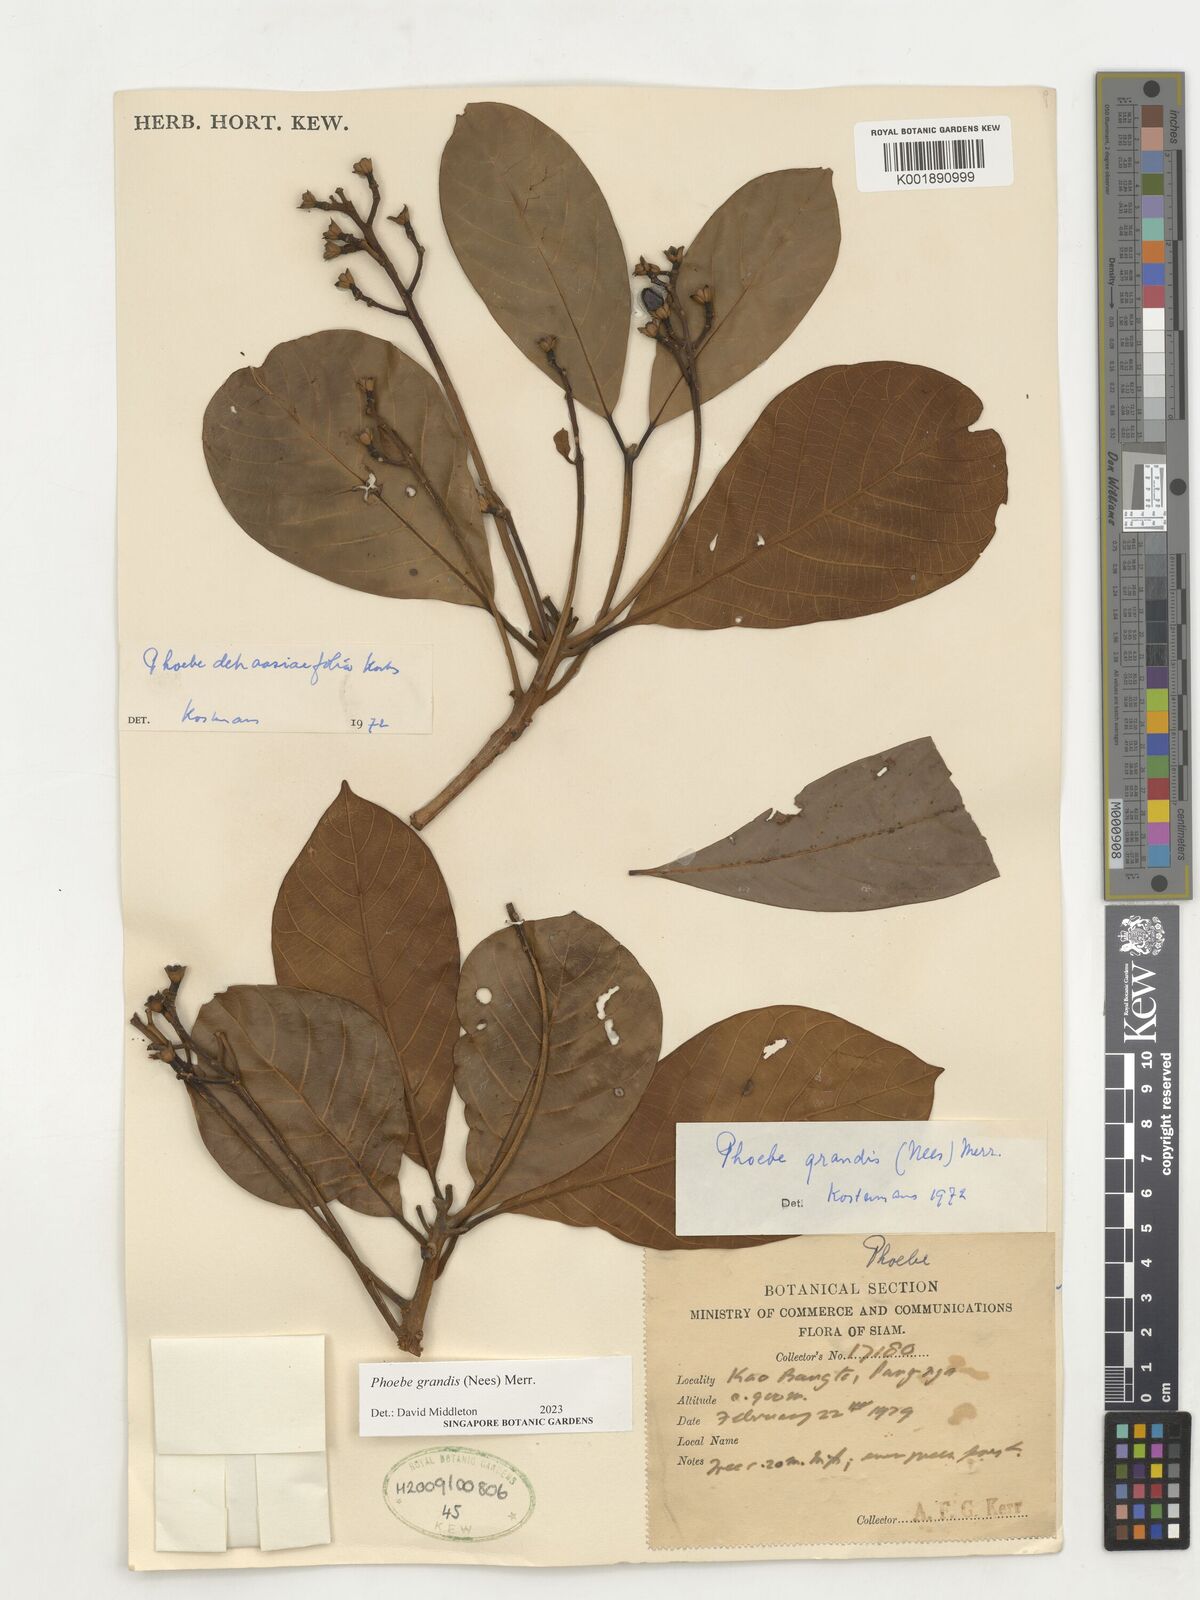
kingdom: Plantae
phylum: Tracheophyta
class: Magnoliopsida
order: Laurales
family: Lauraceae
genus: Phoebe
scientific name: Phoebe grandis
